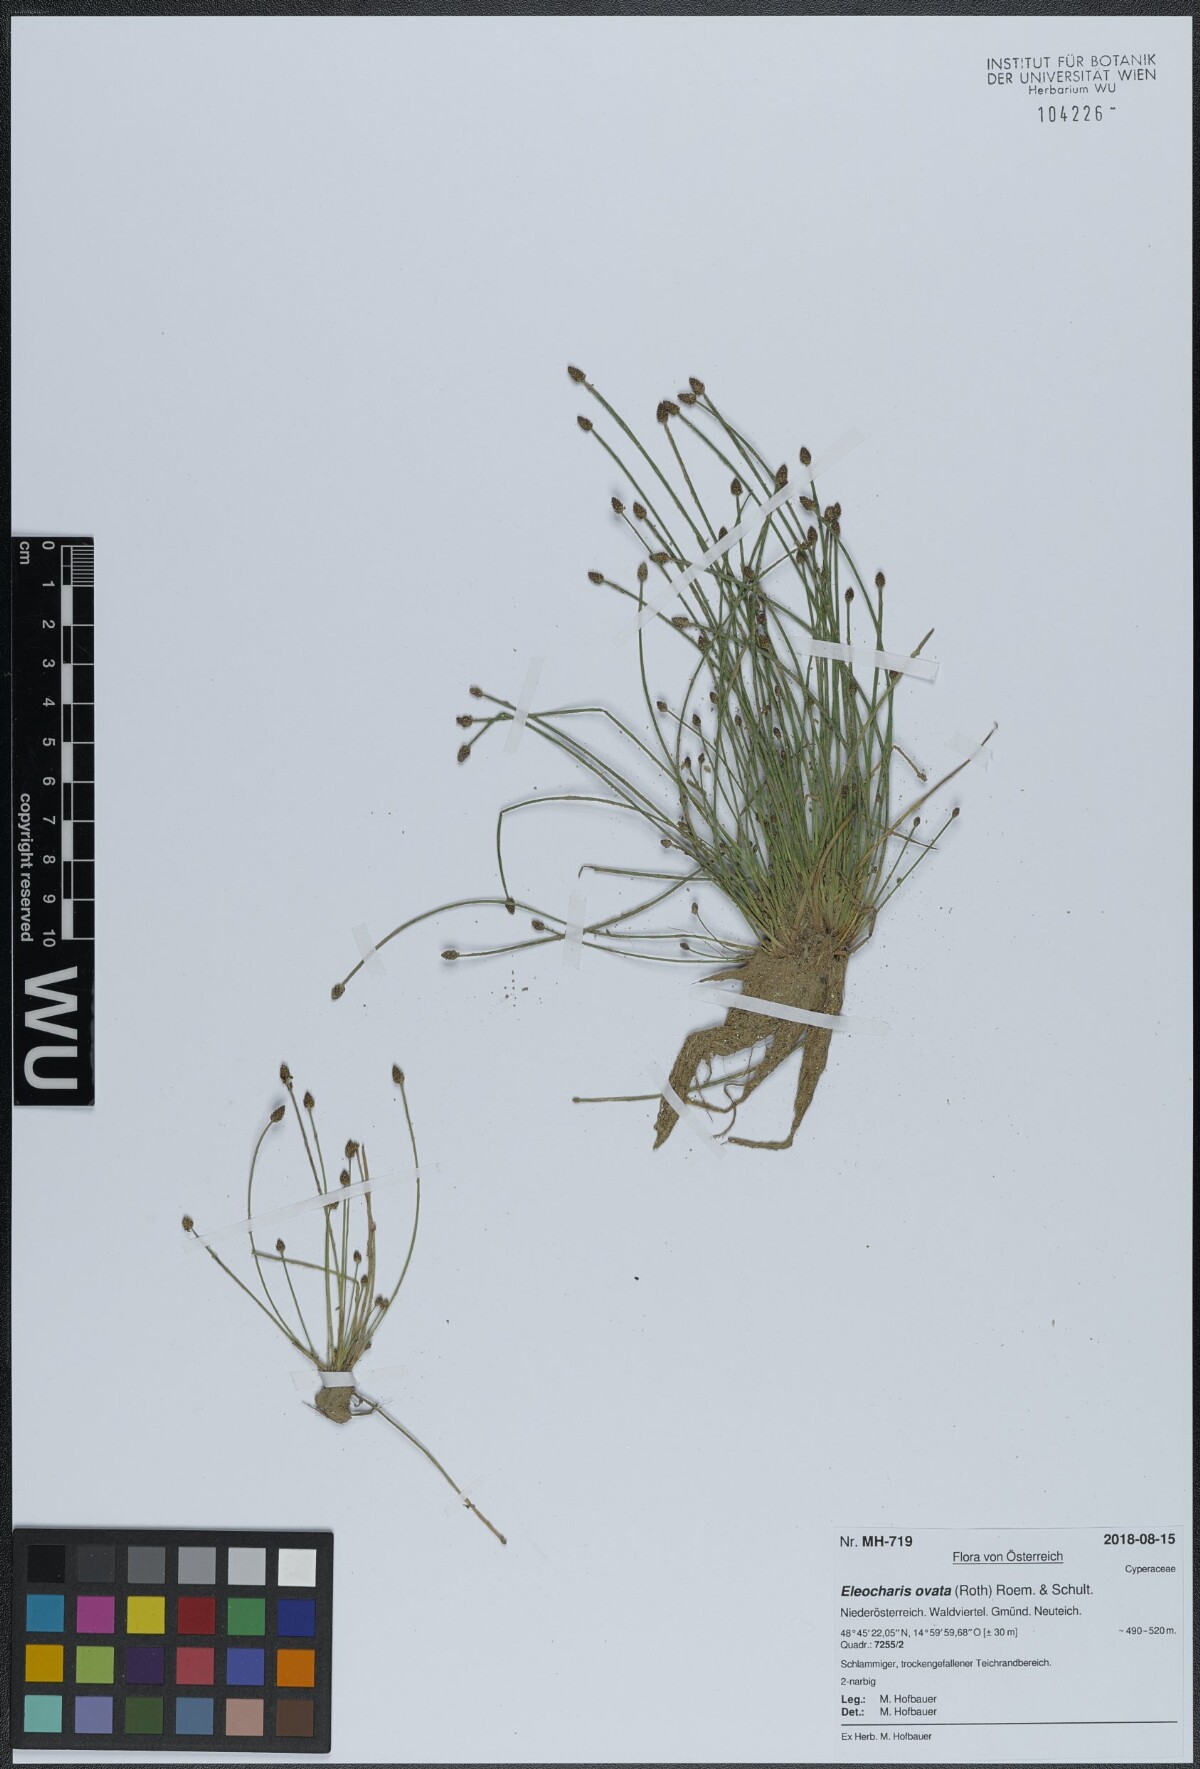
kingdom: Plantae
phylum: Tracheophyta
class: Liliopsida
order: Poales
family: Cyperaceae
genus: Eleocharis
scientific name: Eleocharis ovata
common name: Oval spike-rush
